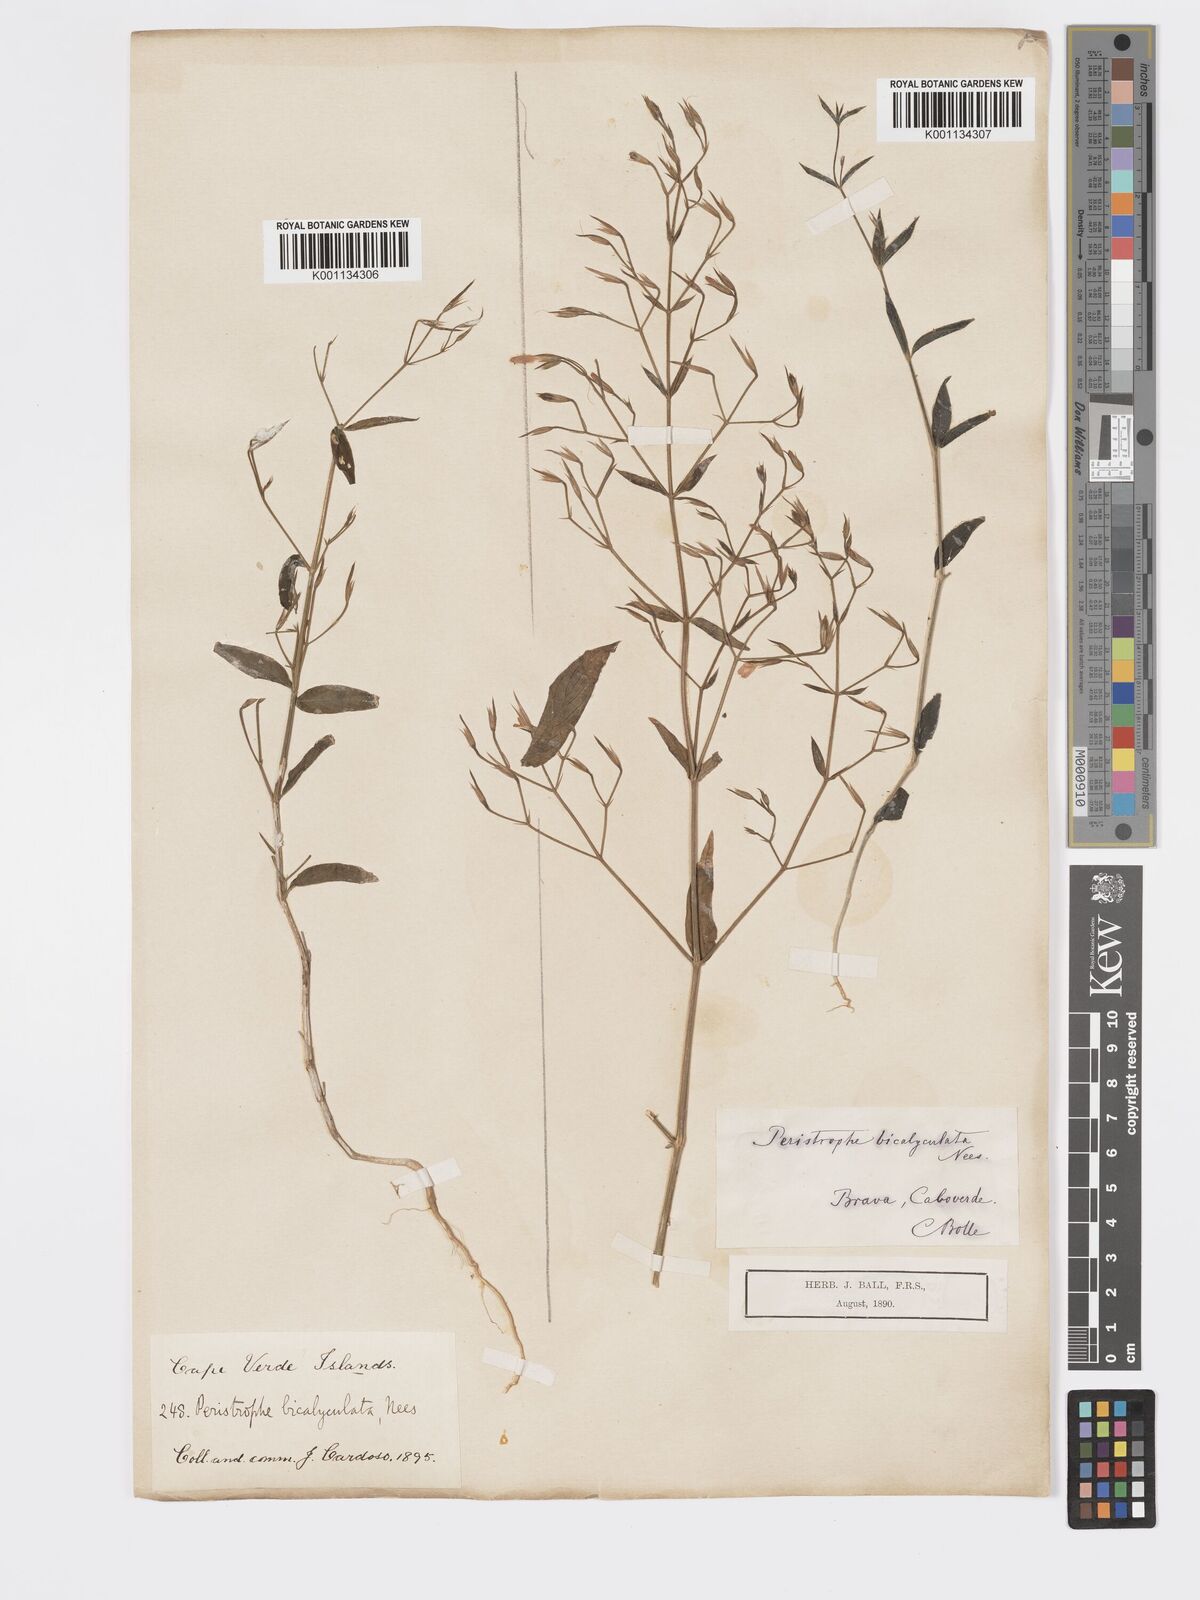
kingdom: Plantae
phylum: Tracheophyta
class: Magnoliopsida
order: Lamiales
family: Acanthaceae
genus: Dicliptera
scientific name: Dicliptera paniculata
